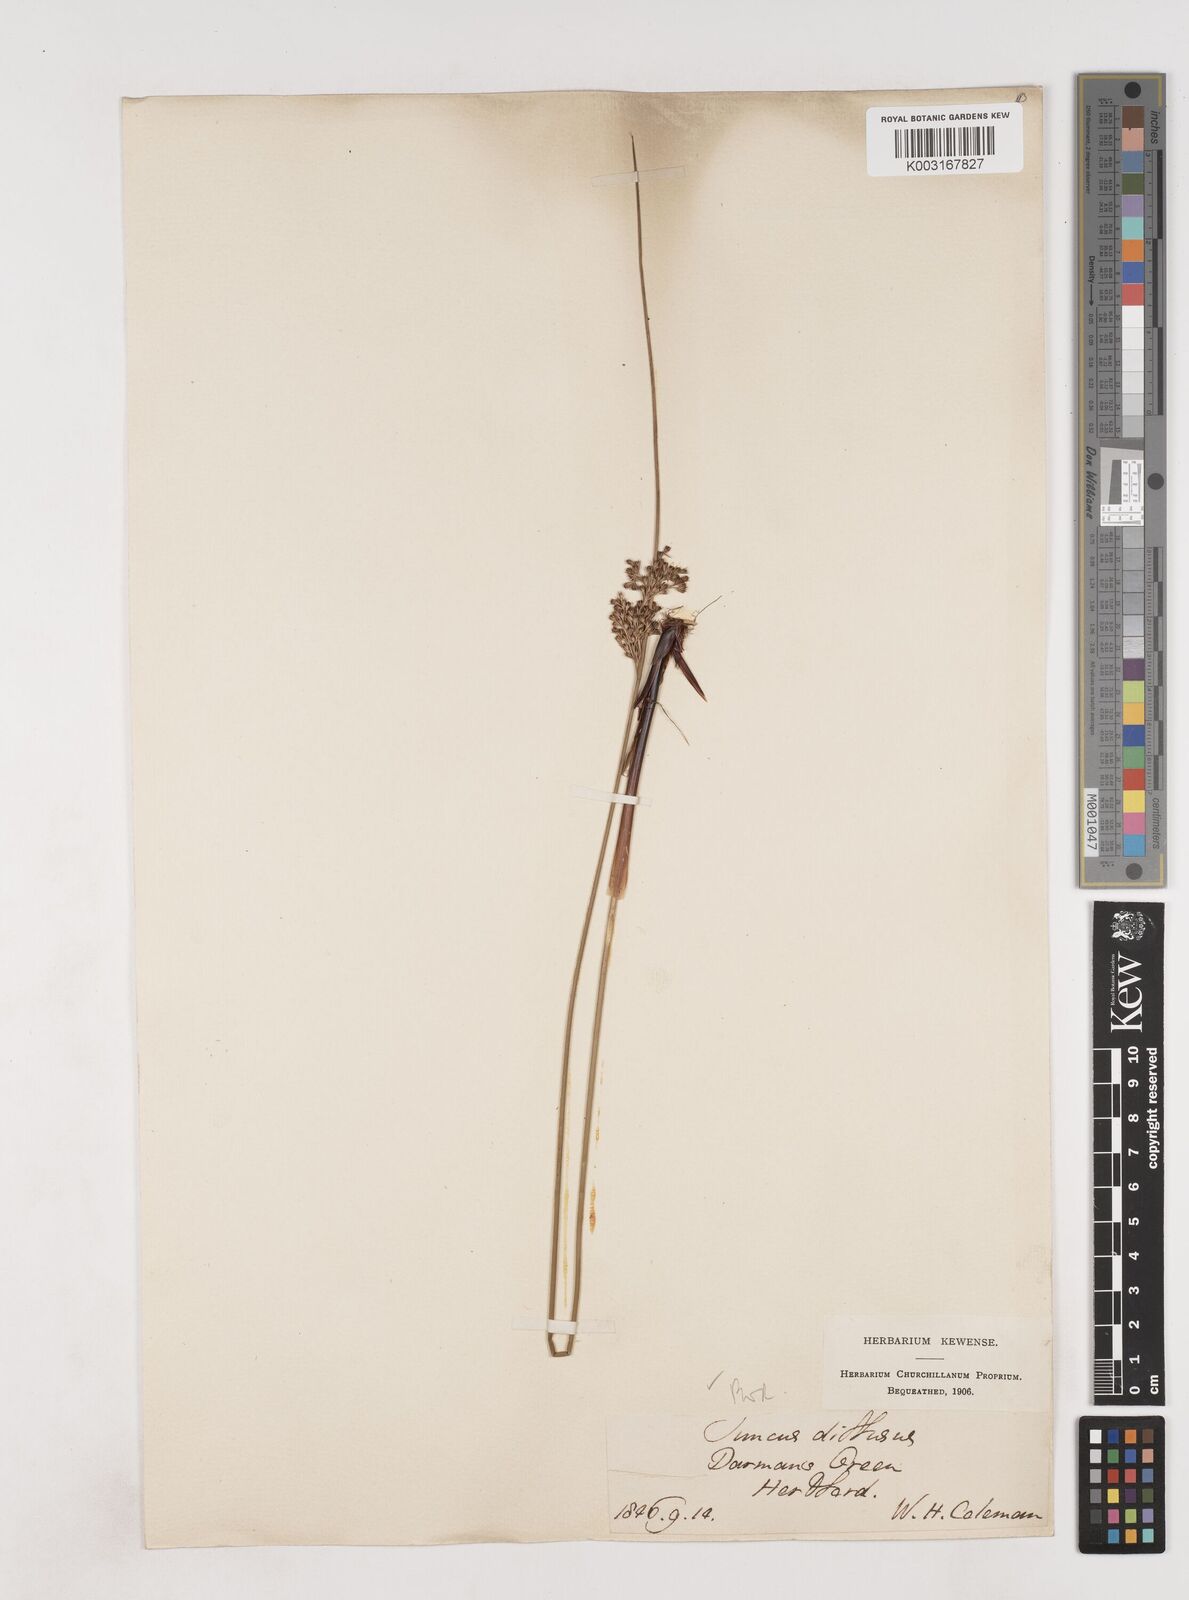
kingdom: Plantae
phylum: Tracheophyta
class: Liliopsida
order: Poales
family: Juncaceae
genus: Juncus
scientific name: Juncus effusus
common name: Soft rush
